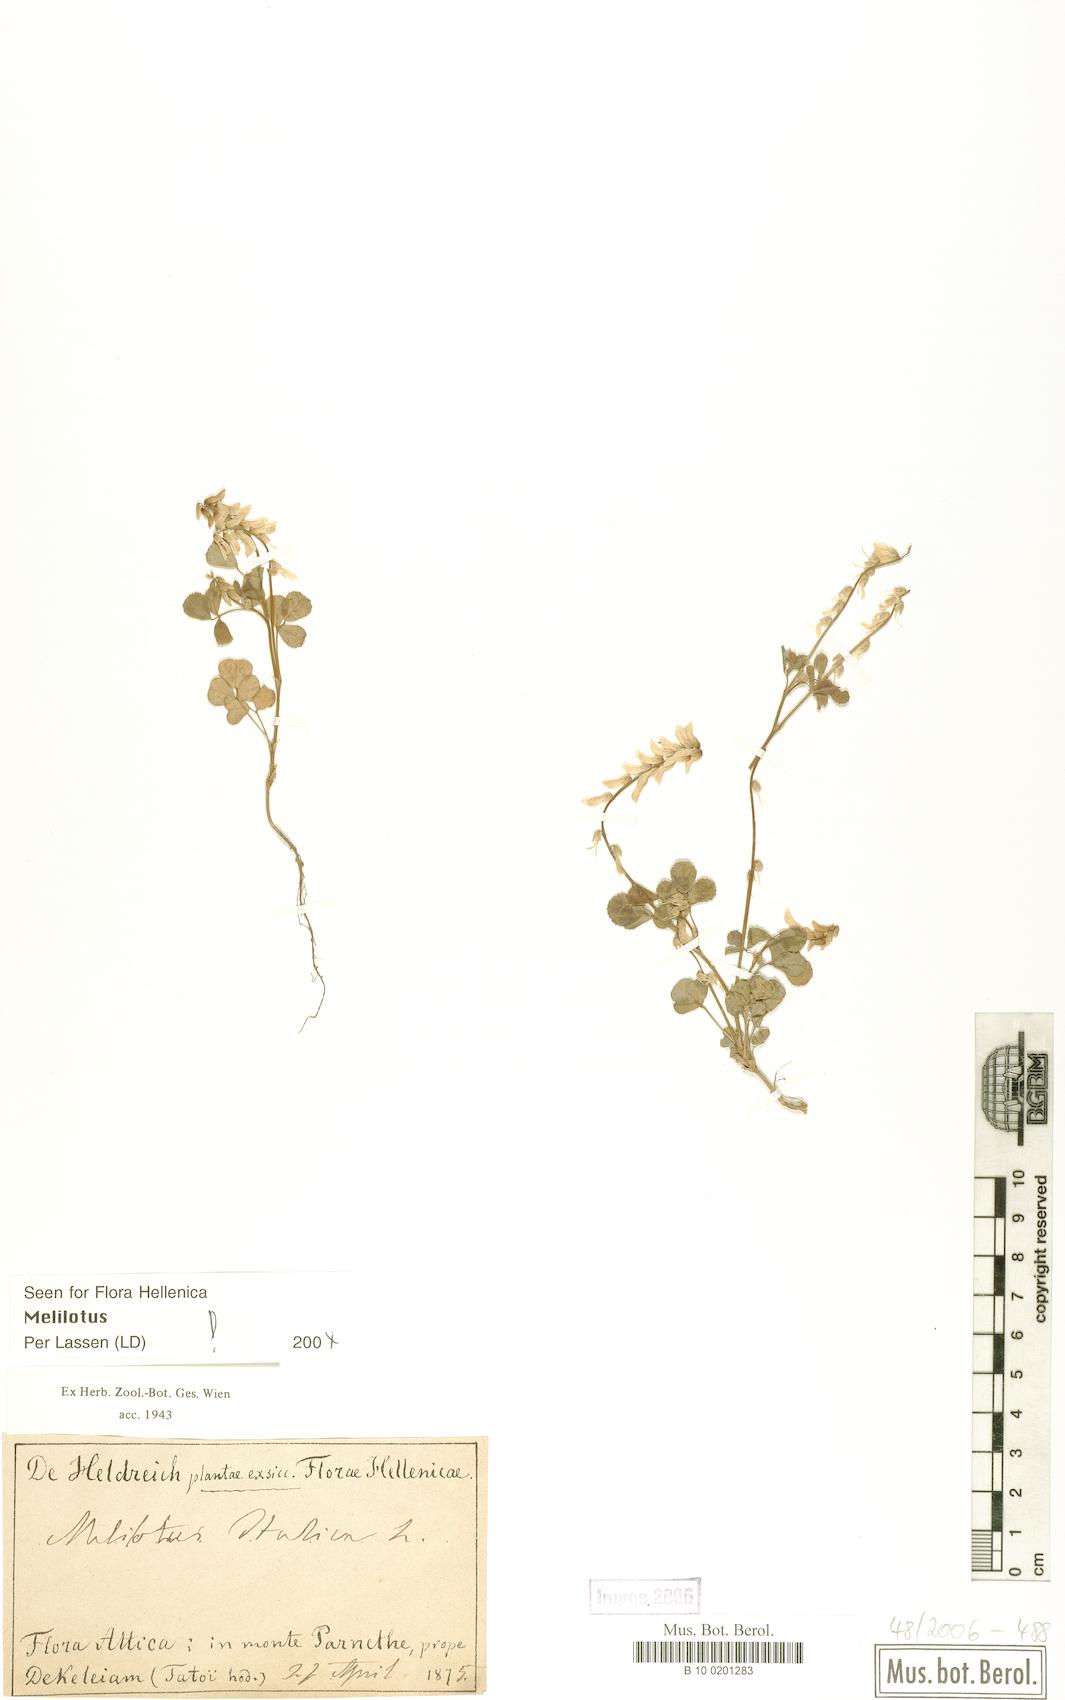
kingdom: Plantae
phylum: Tracheophyta
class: Magnoliopsida
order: Fabales
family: Fabaceae
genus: Melilotus
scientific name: Melilotus italicus
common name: Italian melilot
